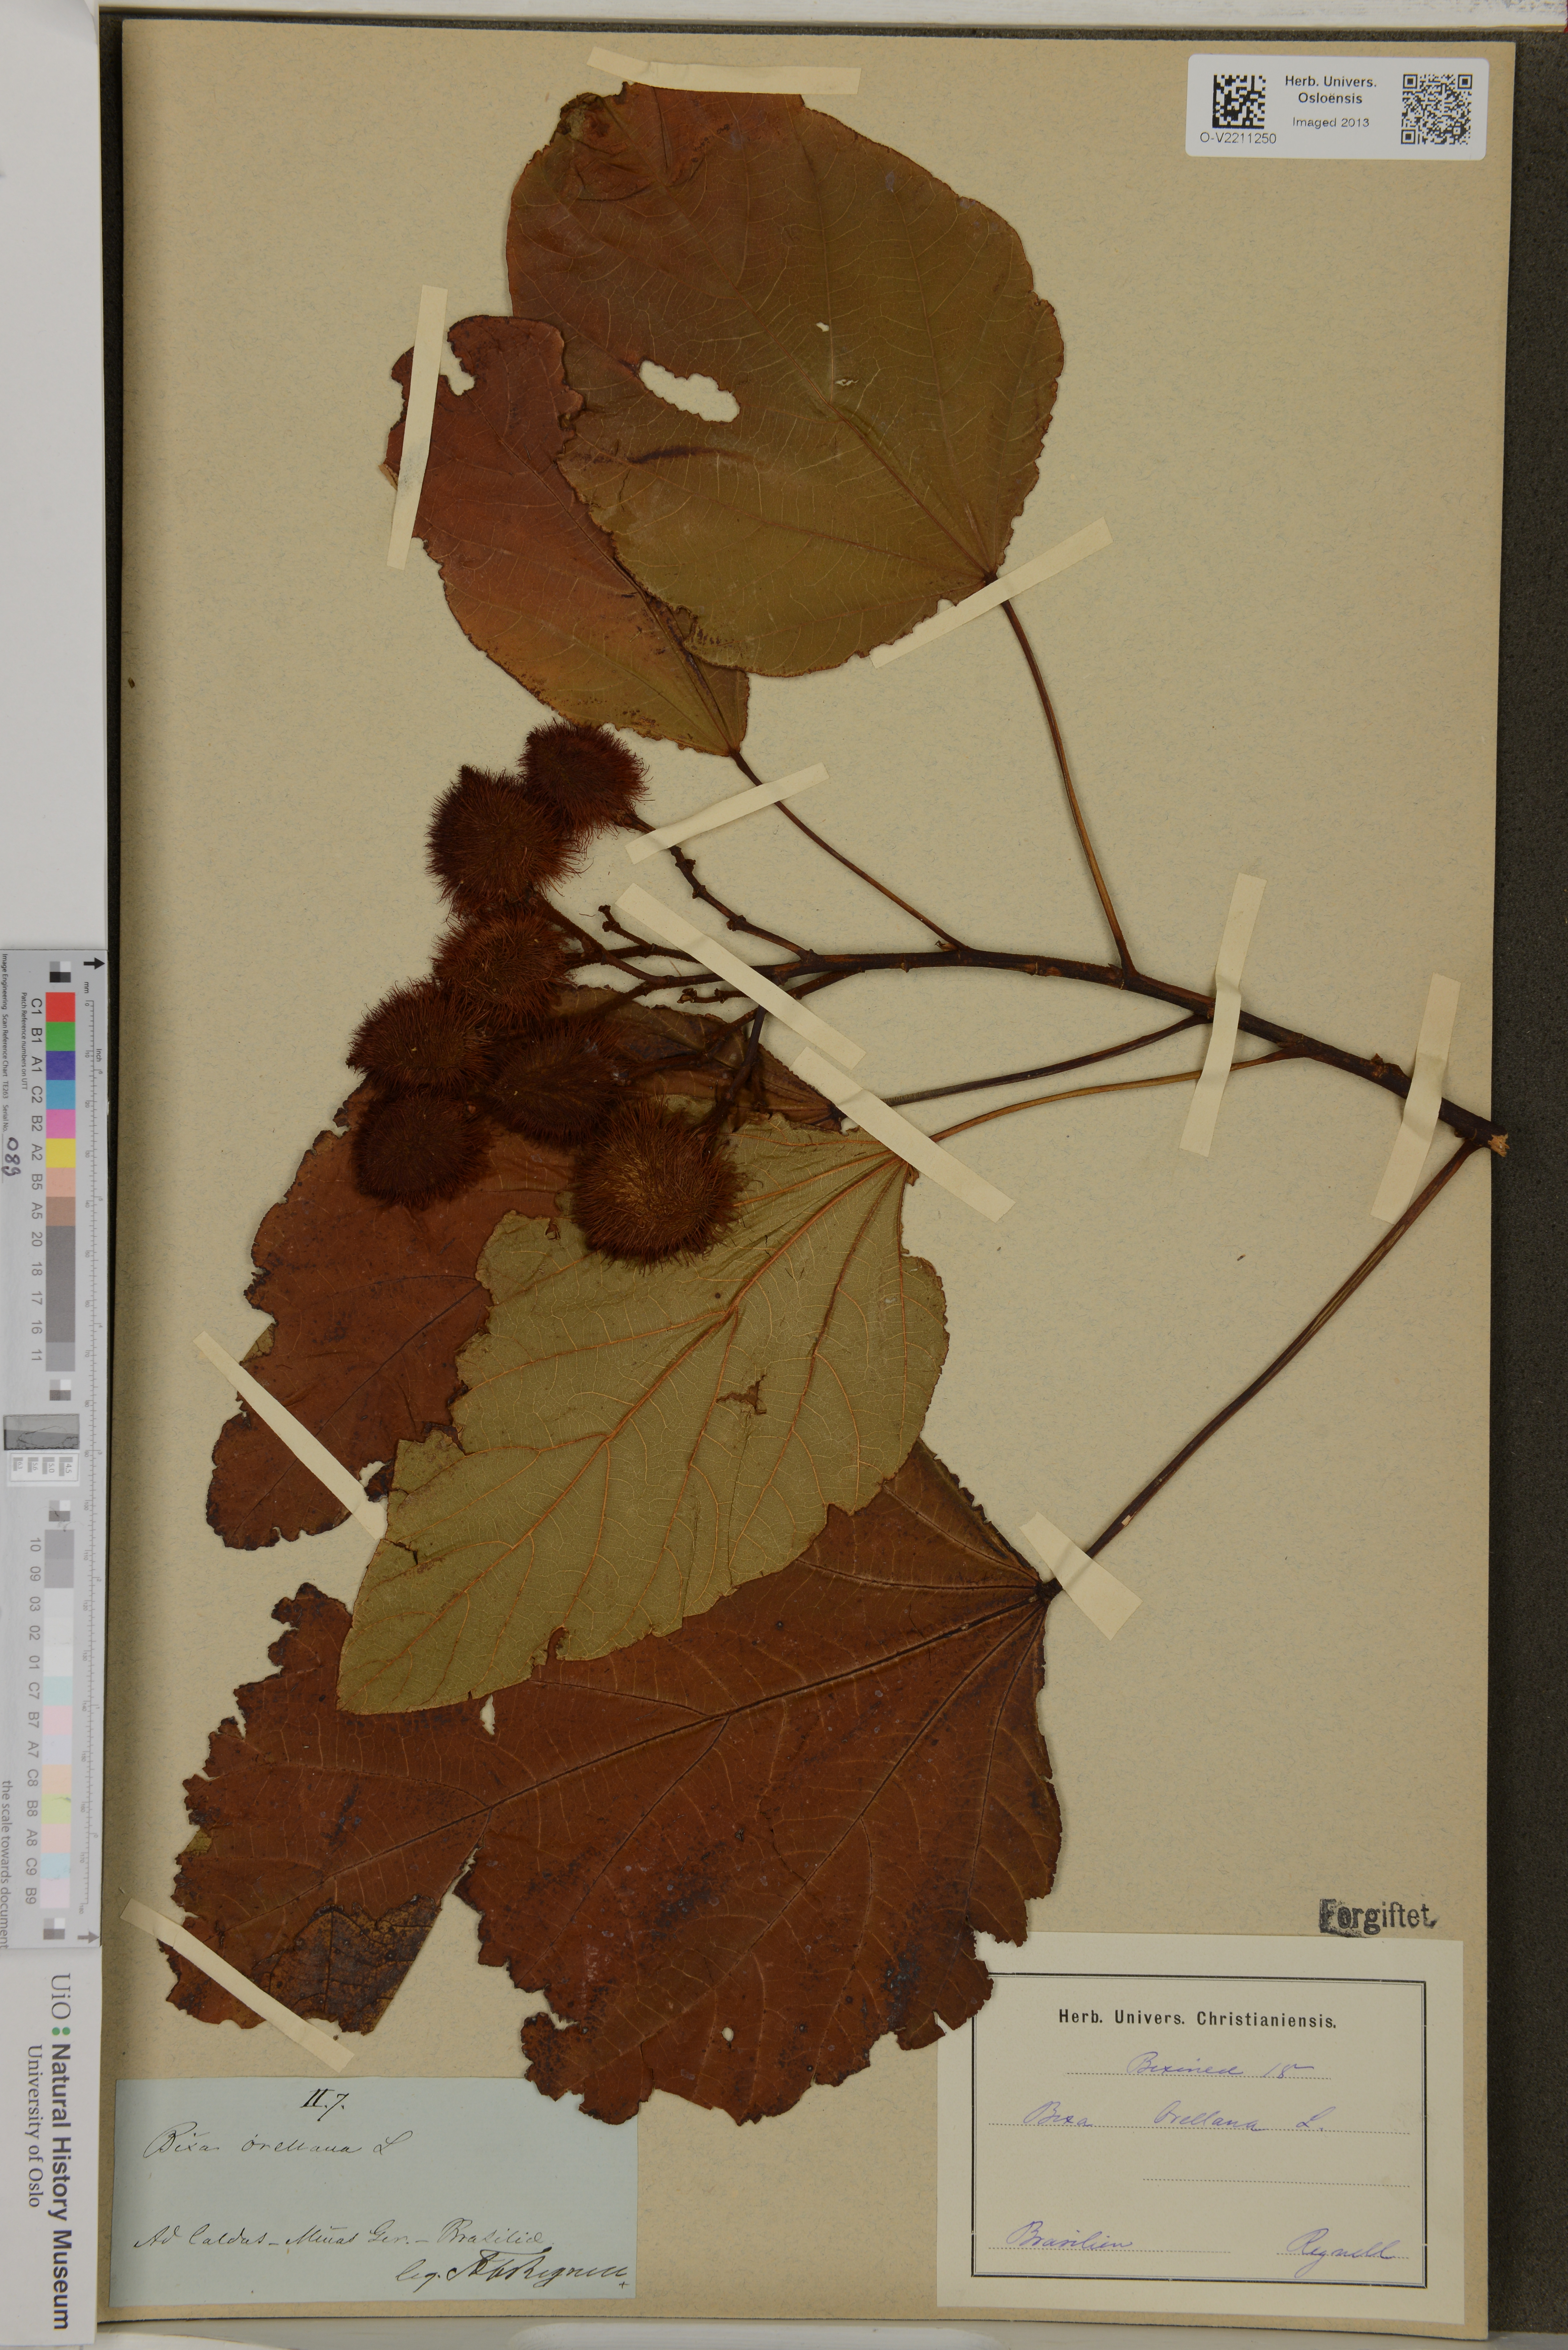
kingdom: Plantae
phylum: Tracheophyta
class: Magnoliopsida
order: Malvales
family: Bixaceae
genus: Bixa
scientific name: Bixa orellana
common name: Lipsticktree
